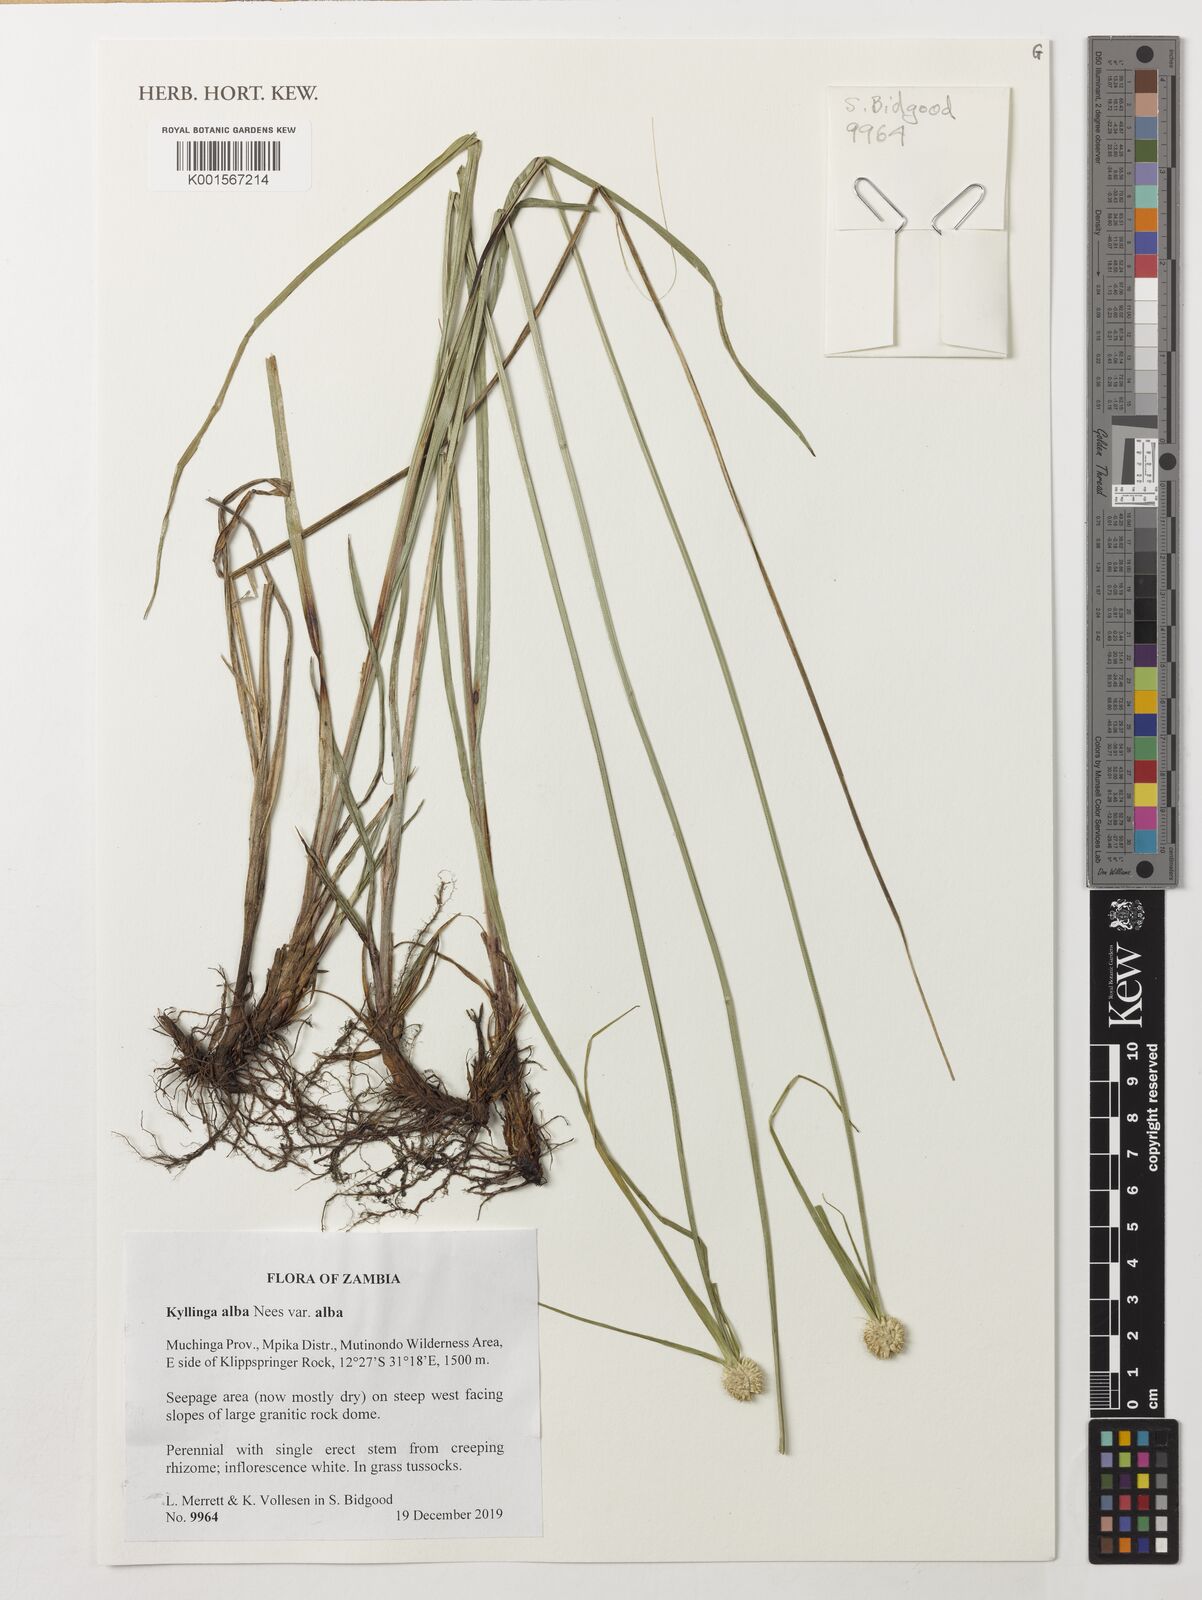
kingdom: Plantae
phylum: Tracheophyta
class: Liliopsida
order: Poales
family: Cyperaceae
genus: Cyperus
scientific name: Cyperus alatus
